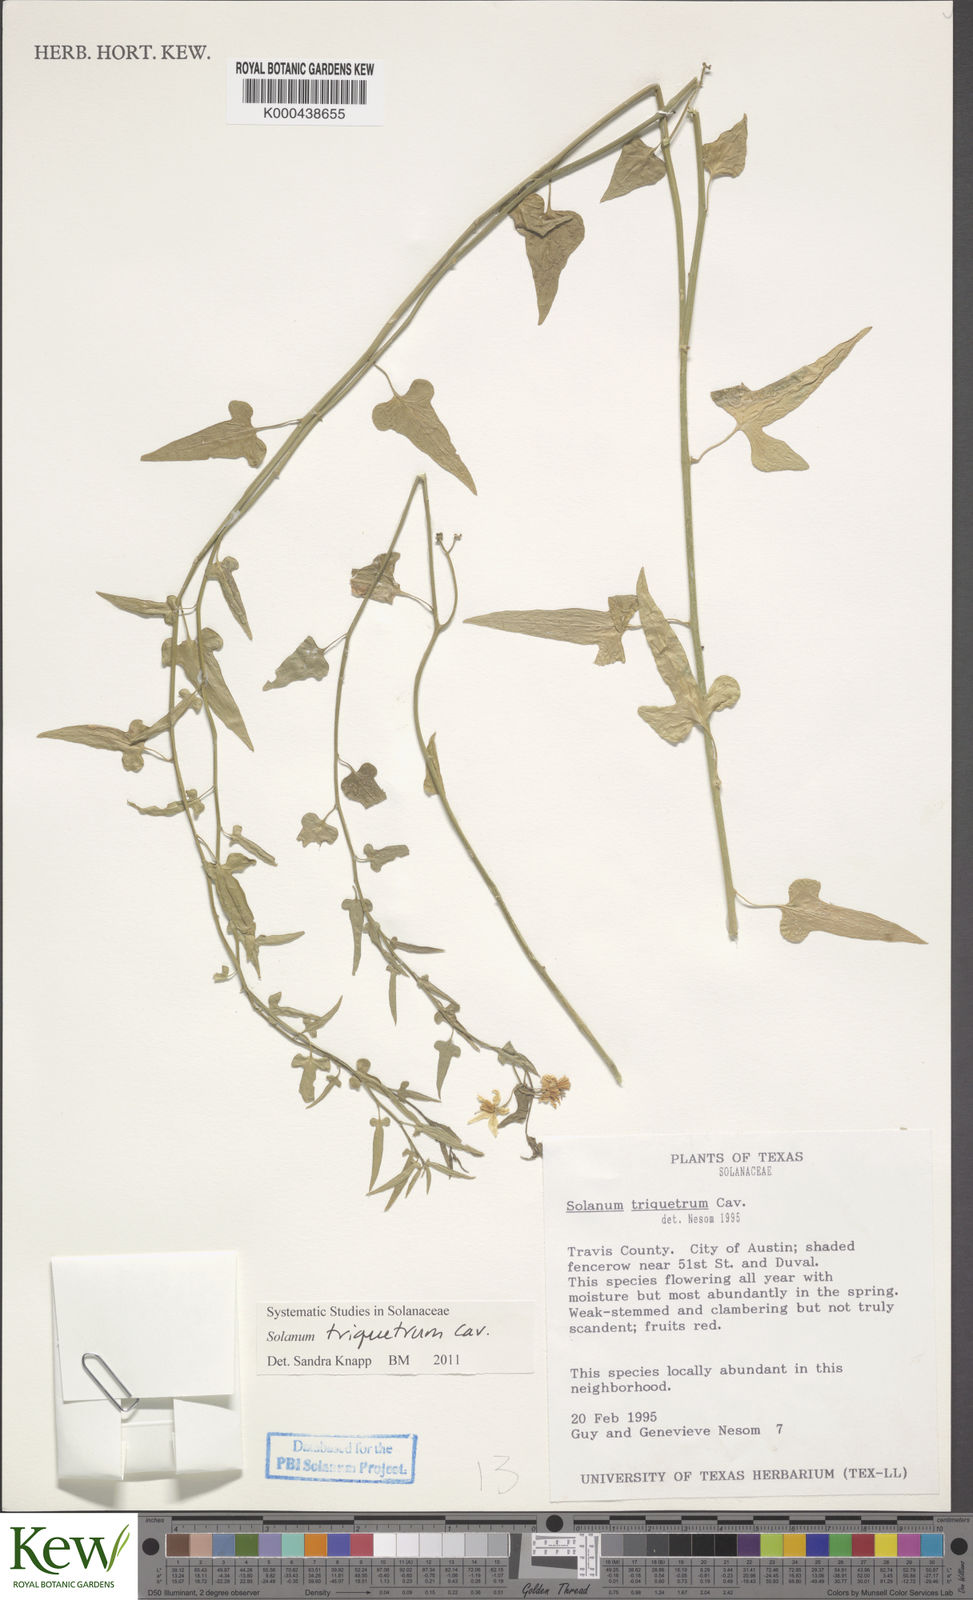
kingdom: Plantae
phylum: Tracheophyta
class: Magnoliopsida
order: Solanales
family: Solanaceae
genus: Solanum
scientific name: Solanum triquetrum
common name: Texas nightshade
